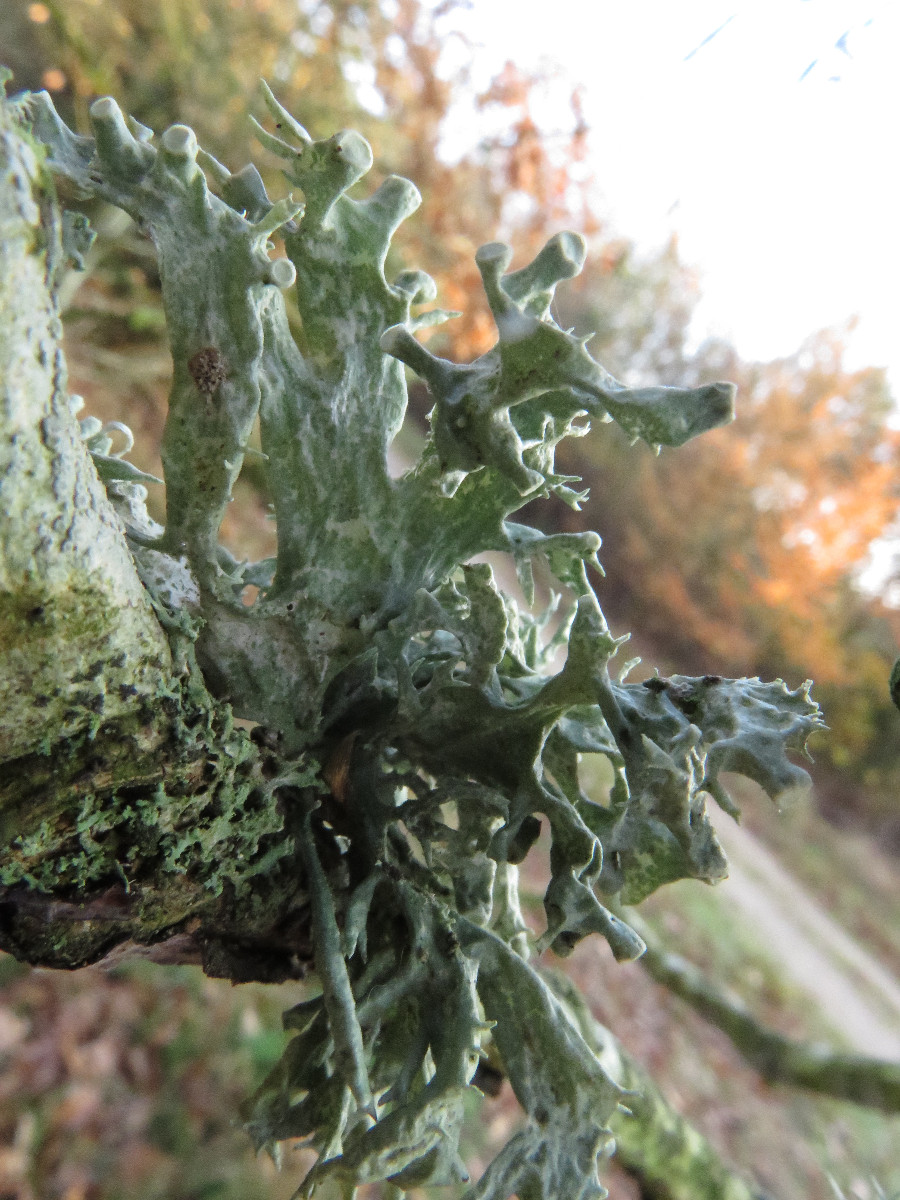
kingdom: Fungi
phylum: Ascomycota
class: Lecanoromycetes
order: Lecanorales
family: Ramalinaceae
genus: Ramalina
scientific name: Ramalina fastigiata
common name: tue-grenlav
